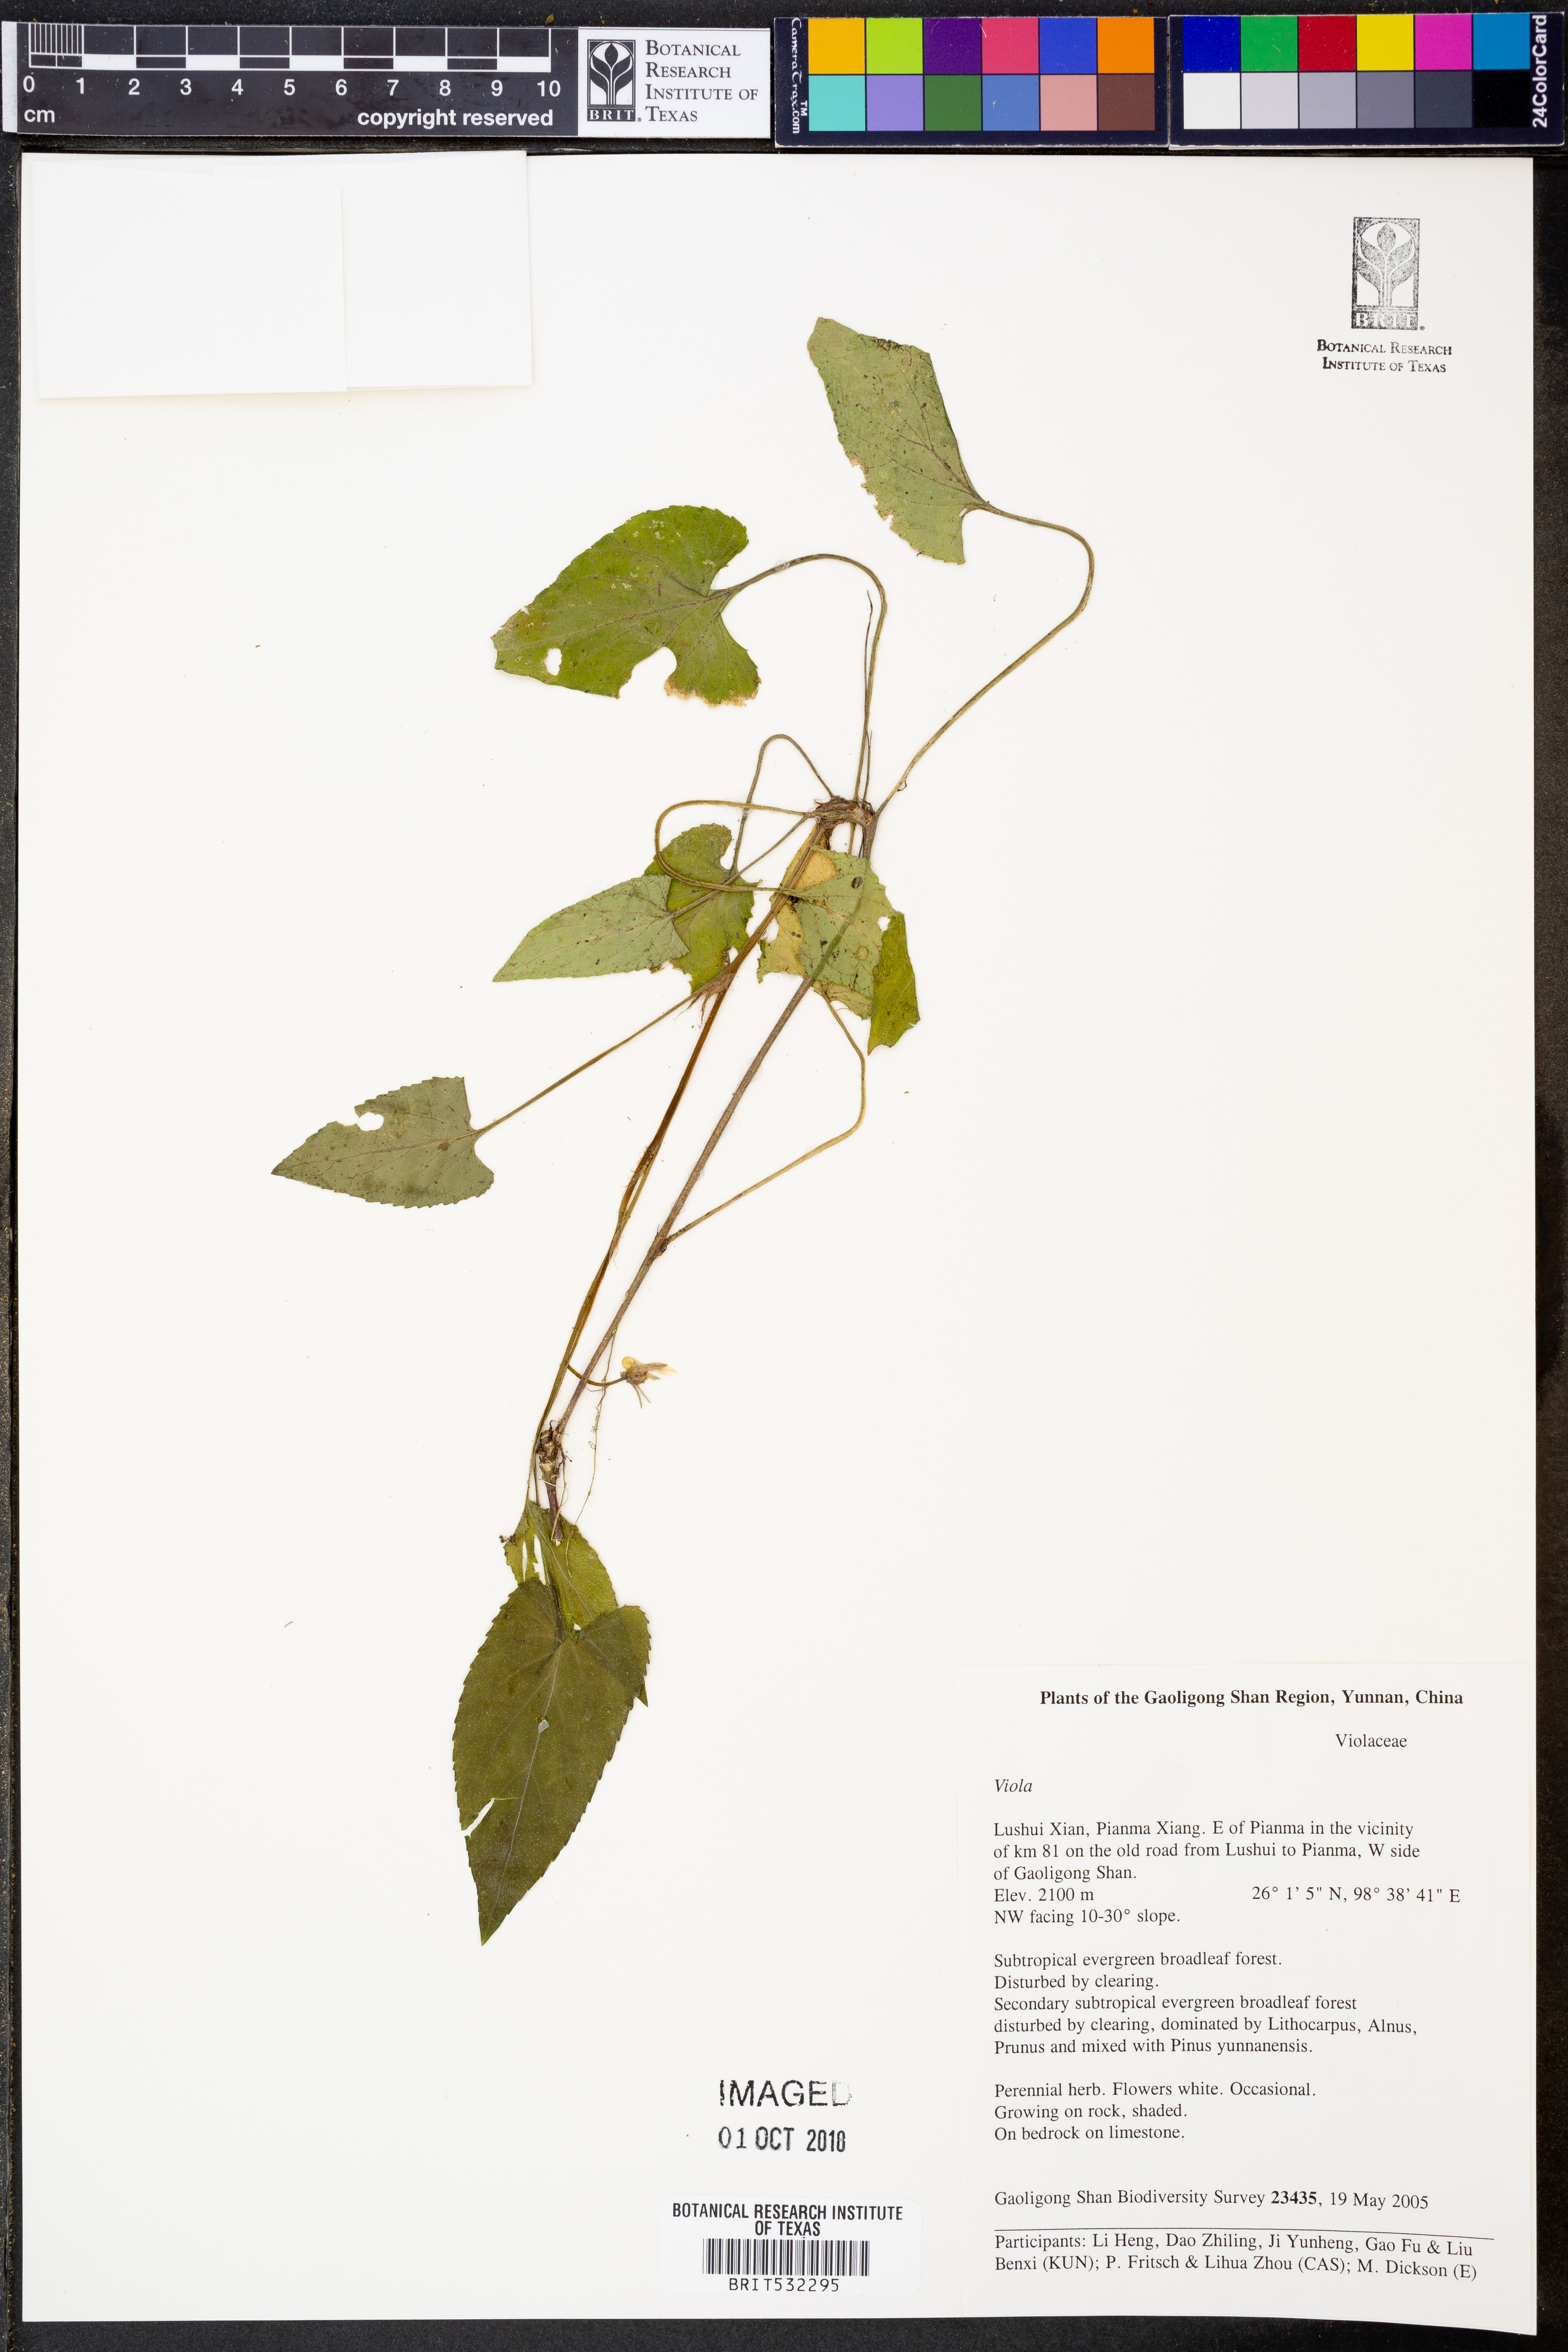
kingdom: Plantae
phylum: Tracheophyta
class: Magnoliopsida
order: Malpighiales
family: Violaceae
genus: Viola
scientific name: Viola
